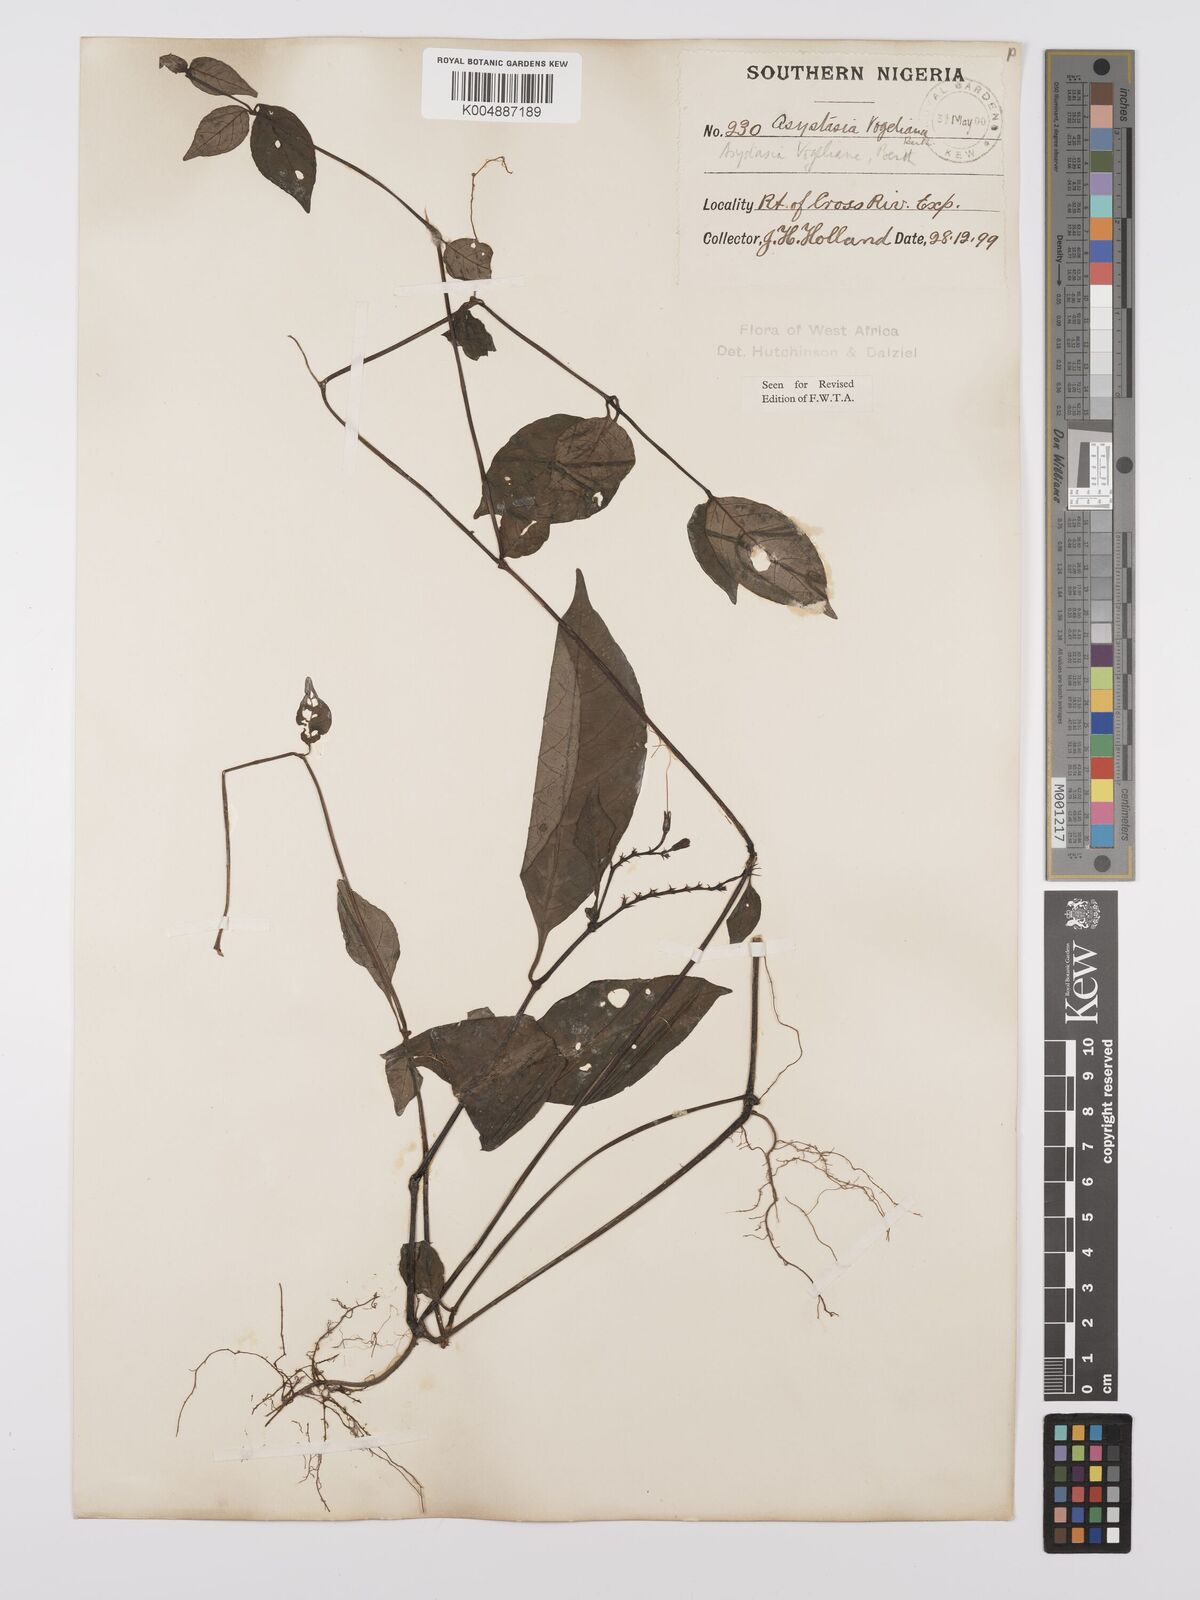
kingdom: Plantae
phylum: Tracheophyta
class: Magnoliopsida
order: Lamiales
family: Acanthaceae
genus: Asystasia
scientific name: Asystasia vogeliana
